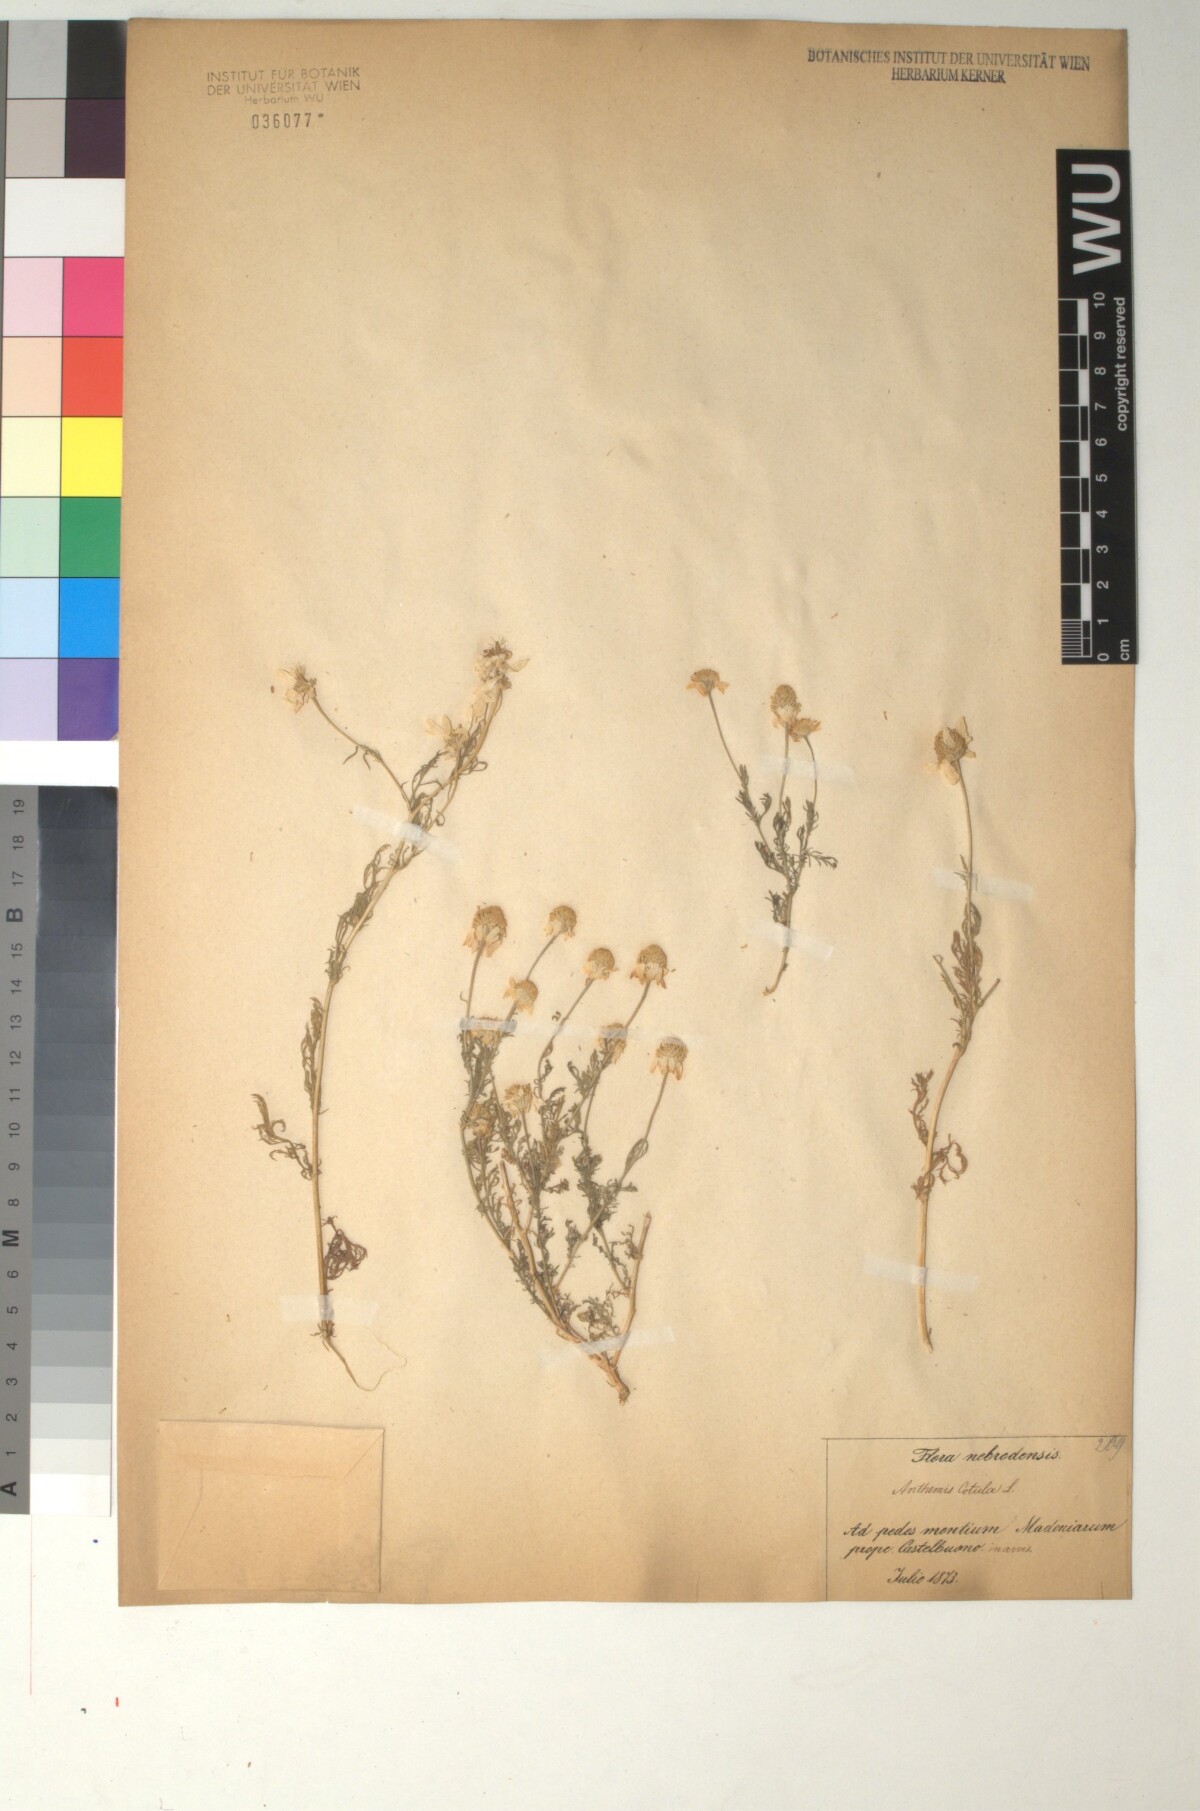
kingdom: Plantae
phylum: Tracheophyta
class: Magnoliopsida
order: Asterales
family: Asteraceae
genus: Anthemis
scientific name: Anthemis cotula
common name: Stinking chamomile
